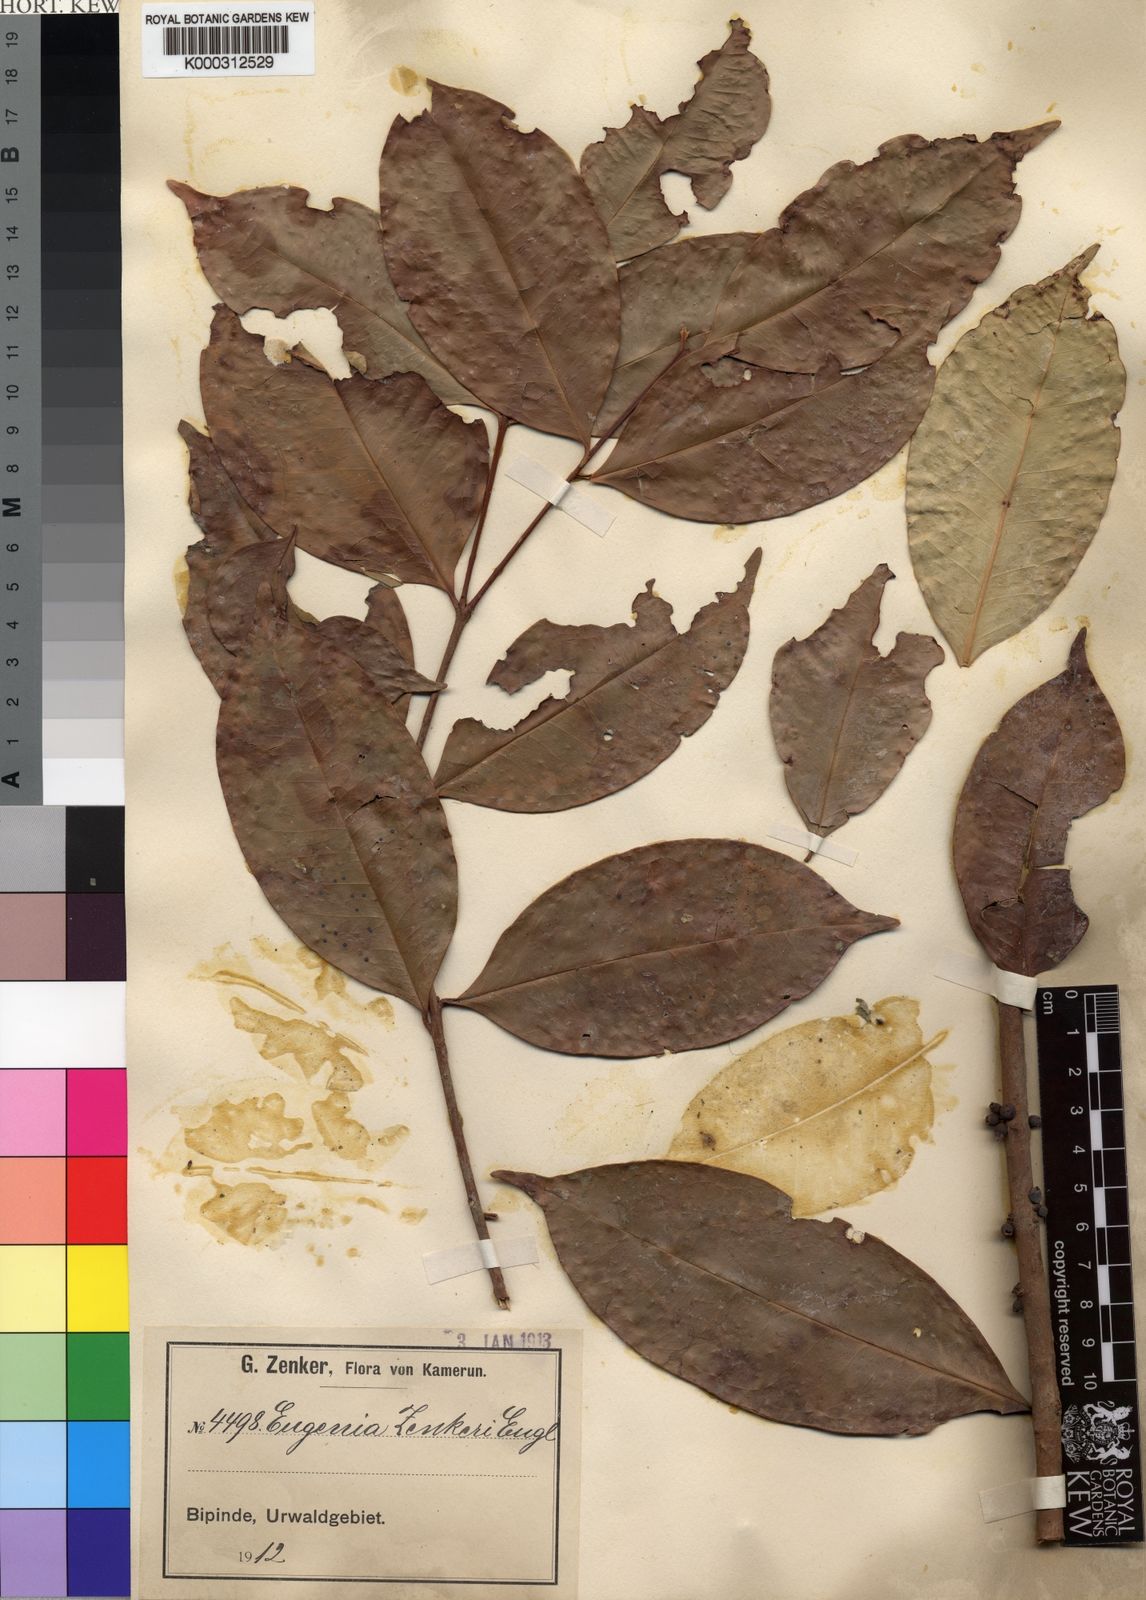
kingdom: Plantae
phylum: Tracheophyta
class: Magnoliopsida
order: Myrtales
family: Myrtaceae
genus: Eugenia
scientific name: Eugenia zenkeri
